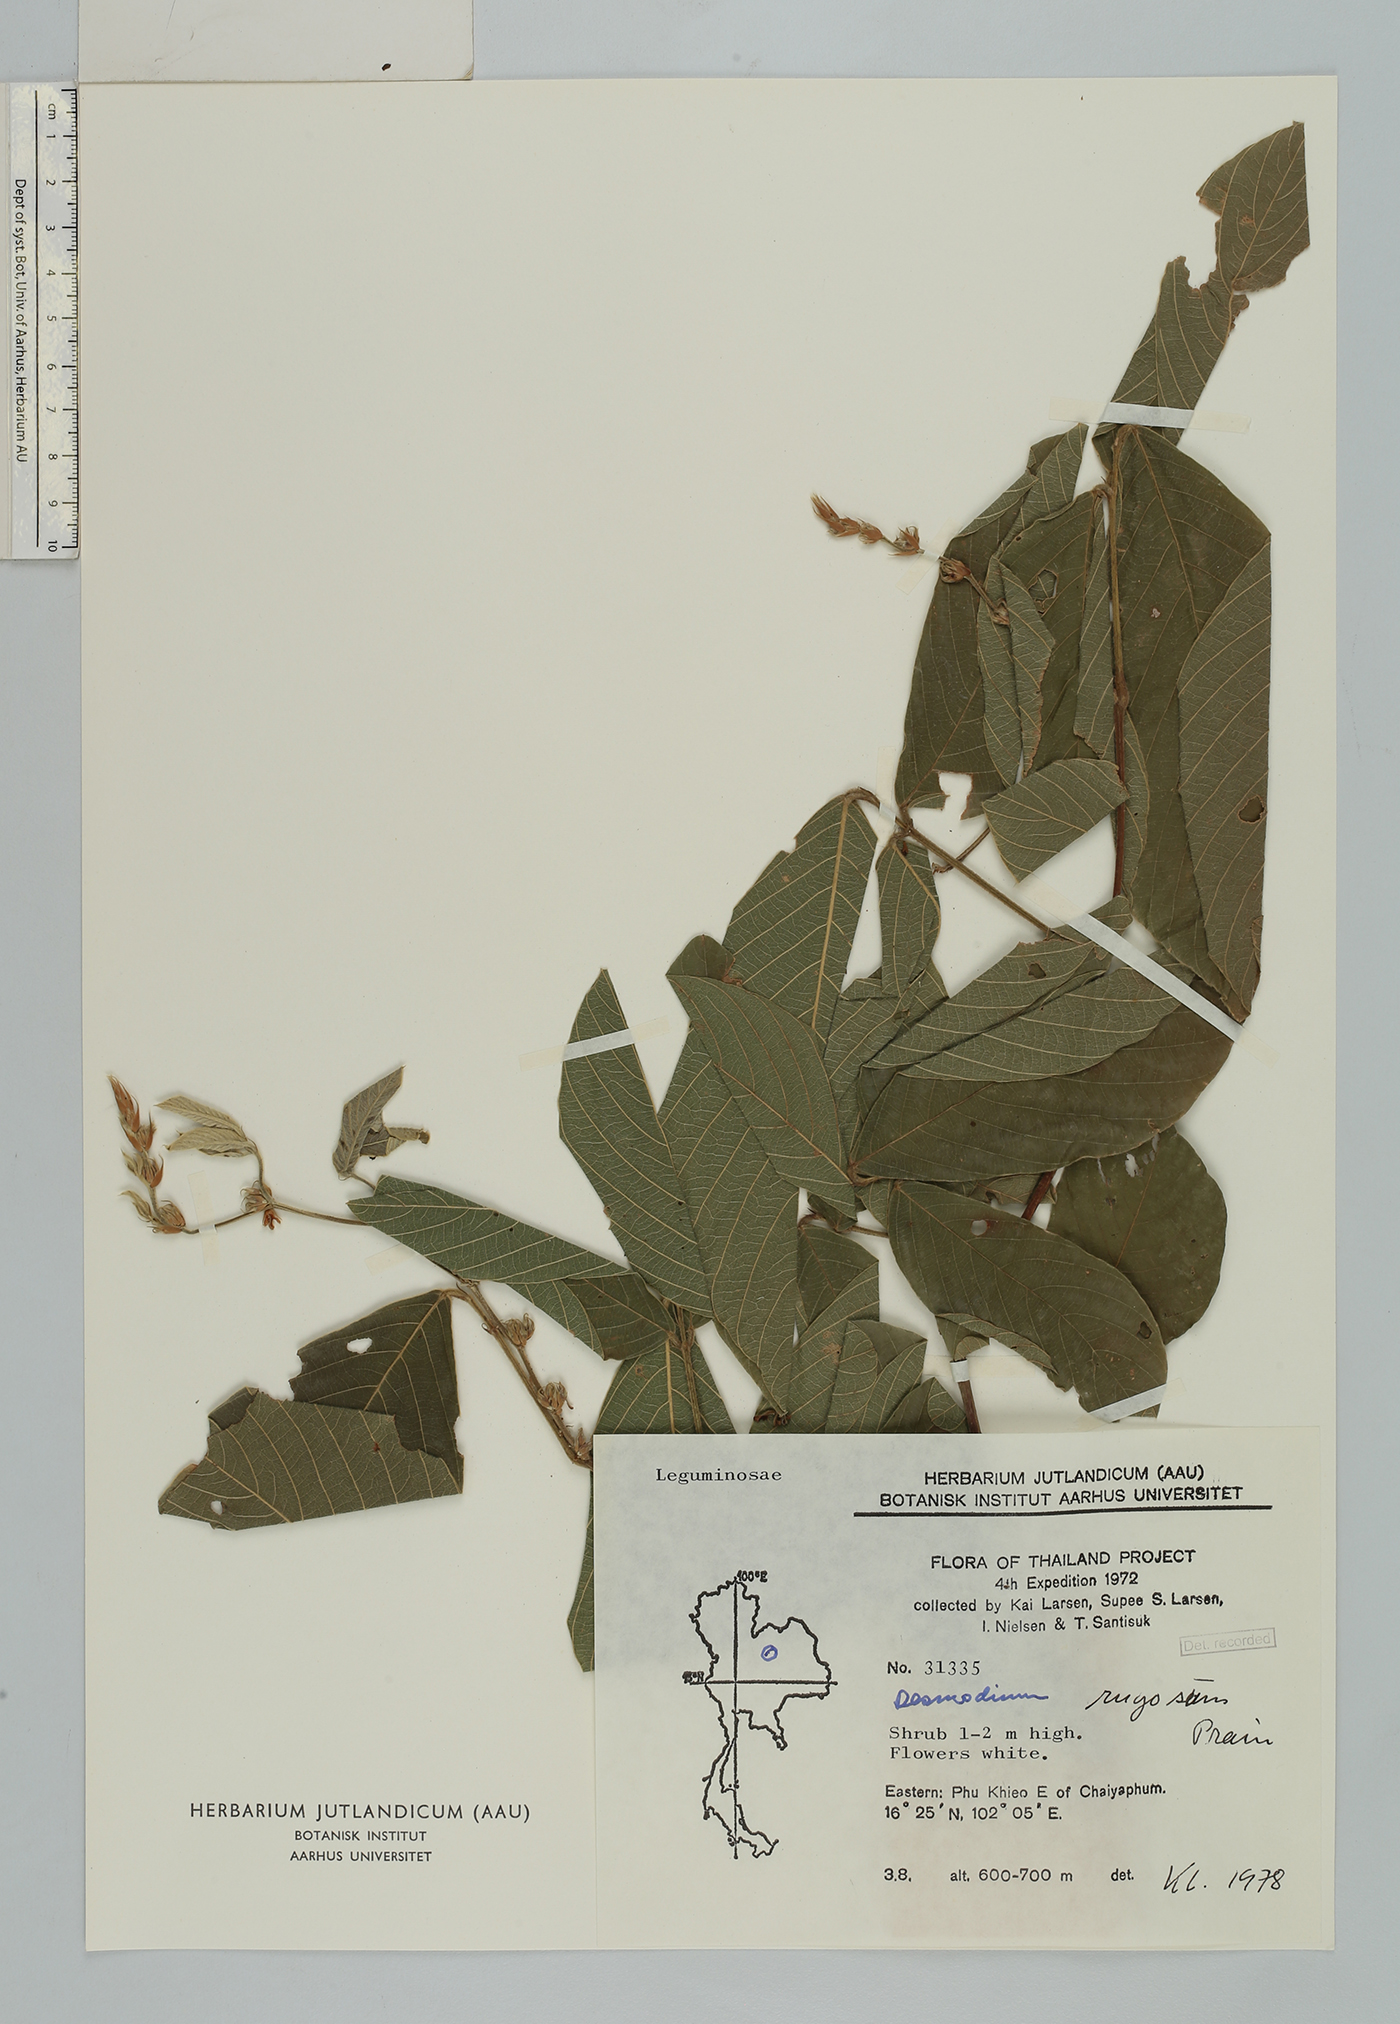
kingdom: Plantae
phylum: Tracheophyta
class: Magnoliopsida
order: Fabales
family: Fabaceae
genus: Dendrolobium
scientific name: Dendrolobium rugosum
